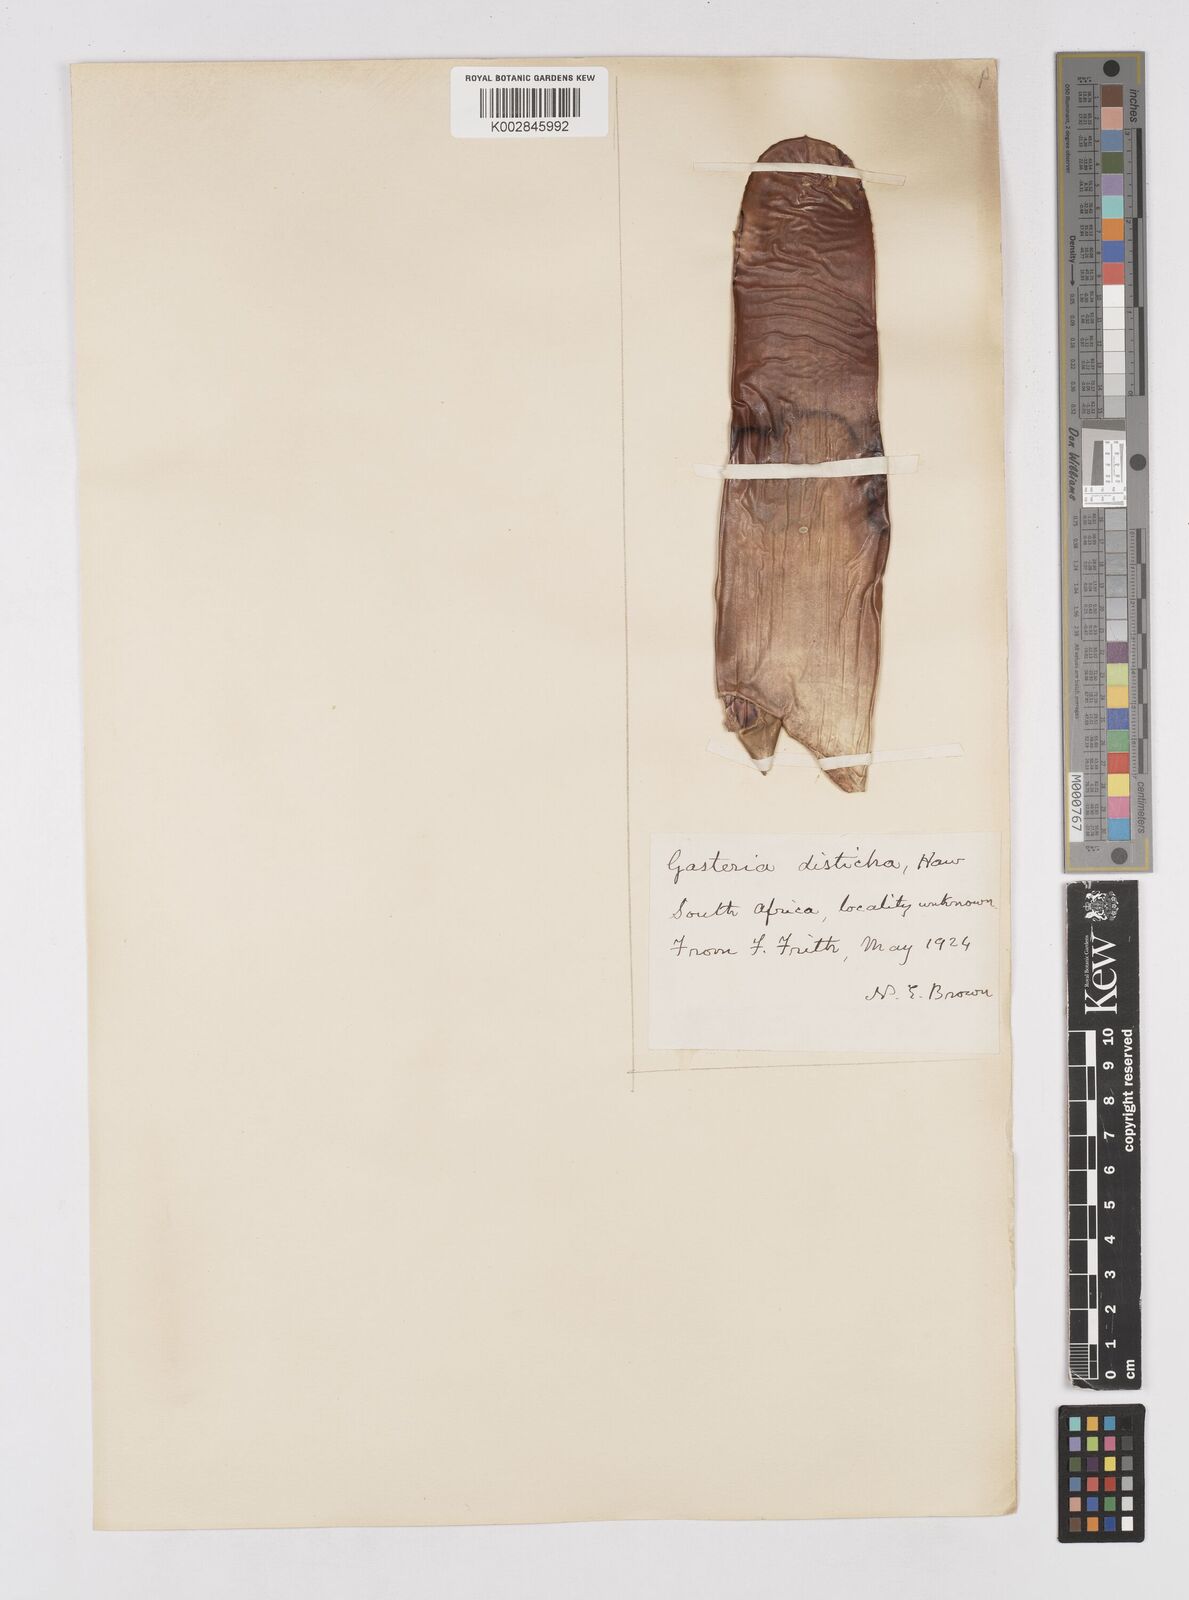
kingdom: Plantae
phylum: Tracheophyta
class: Liliopsida
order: Asparagales
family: Asphodelaceae
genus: Gasteria
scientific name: Gasteria lingua
